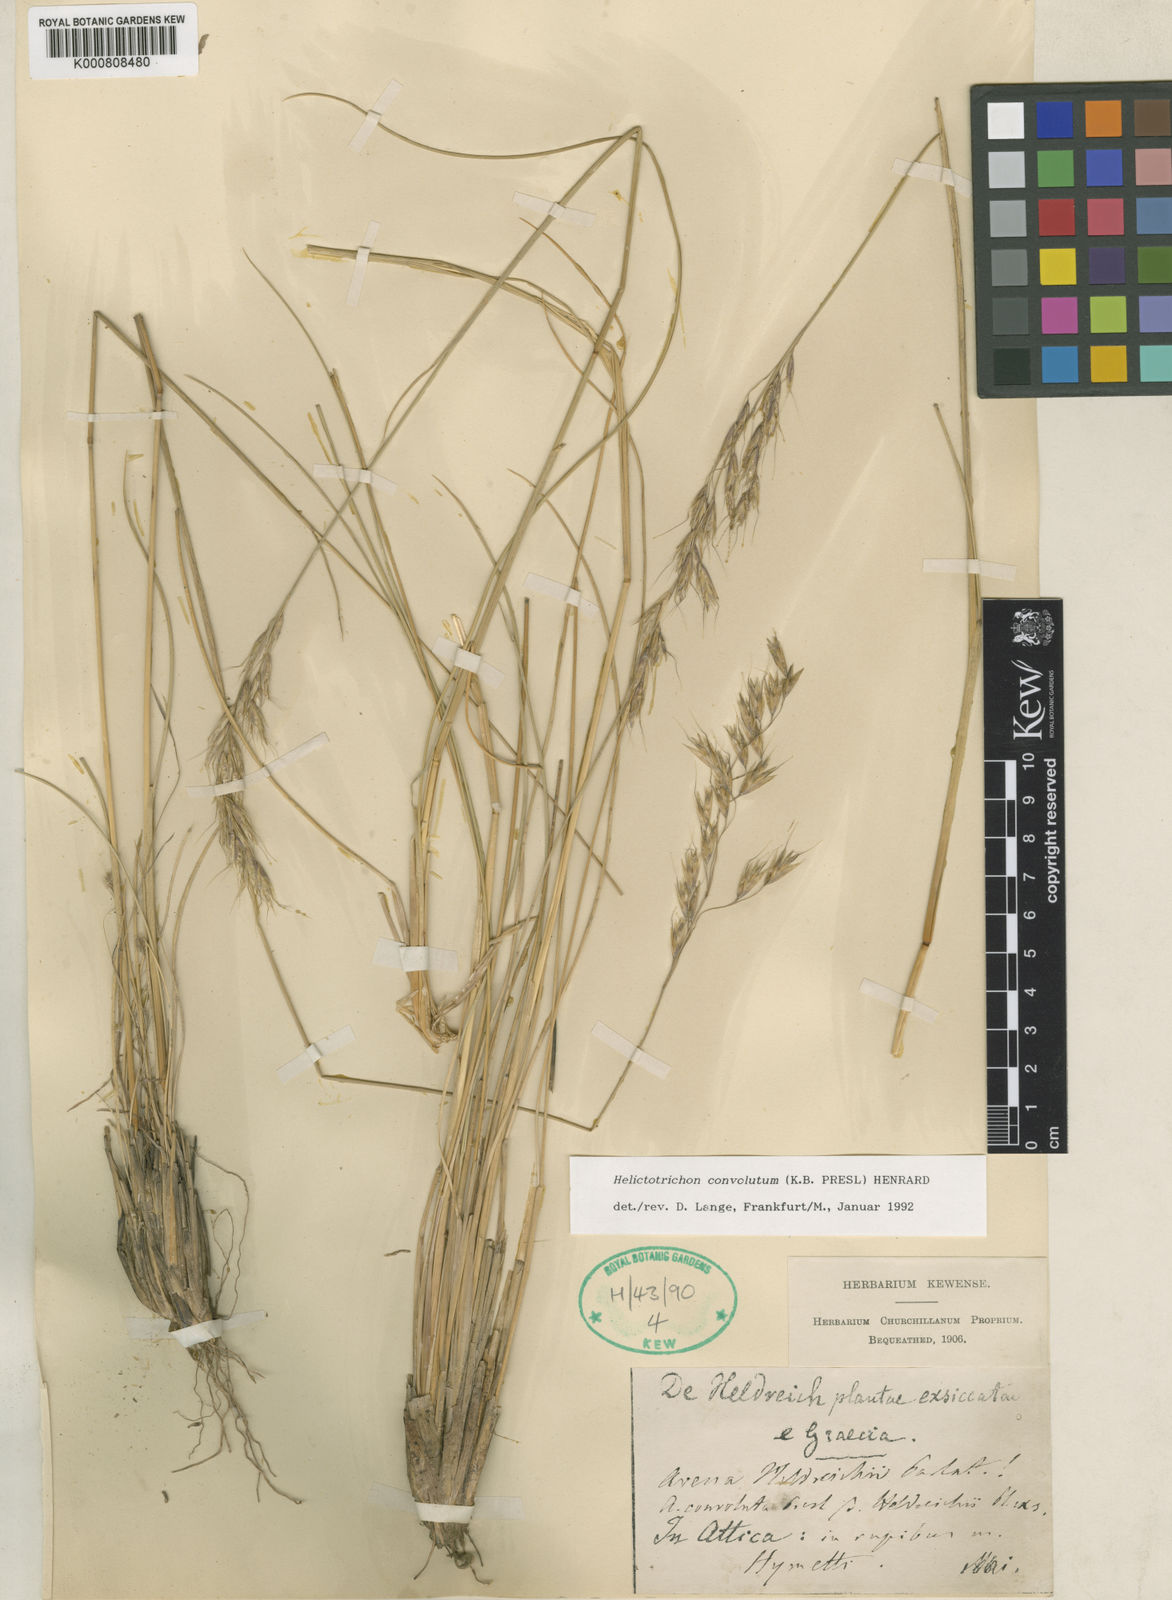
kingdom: Plantae
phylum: Tracheophyta
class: Liliopsida
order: Poales
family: Poaceae
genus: Helictotrichon
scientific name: Helictotrichon convolutum
